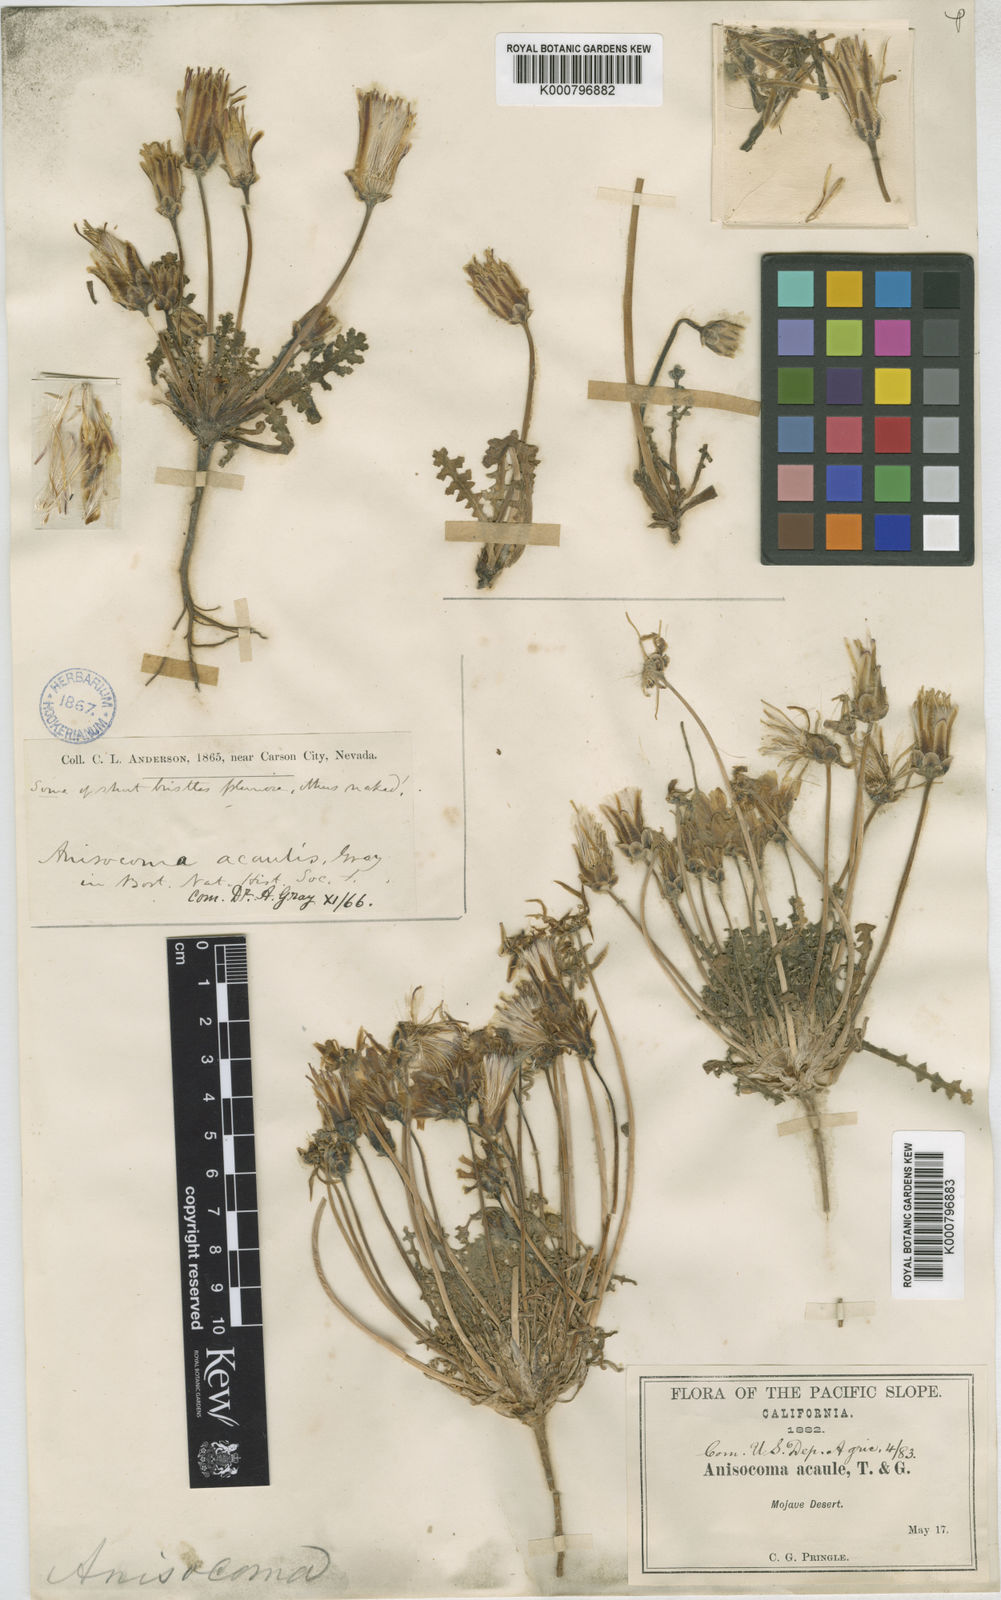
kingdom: Plantae
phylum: Tracheophyta
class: Magnoliopsida
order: Asterales
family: Asteraceae
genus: Anisocoma
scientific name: Anisocoma acaulis
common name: Scalebud
